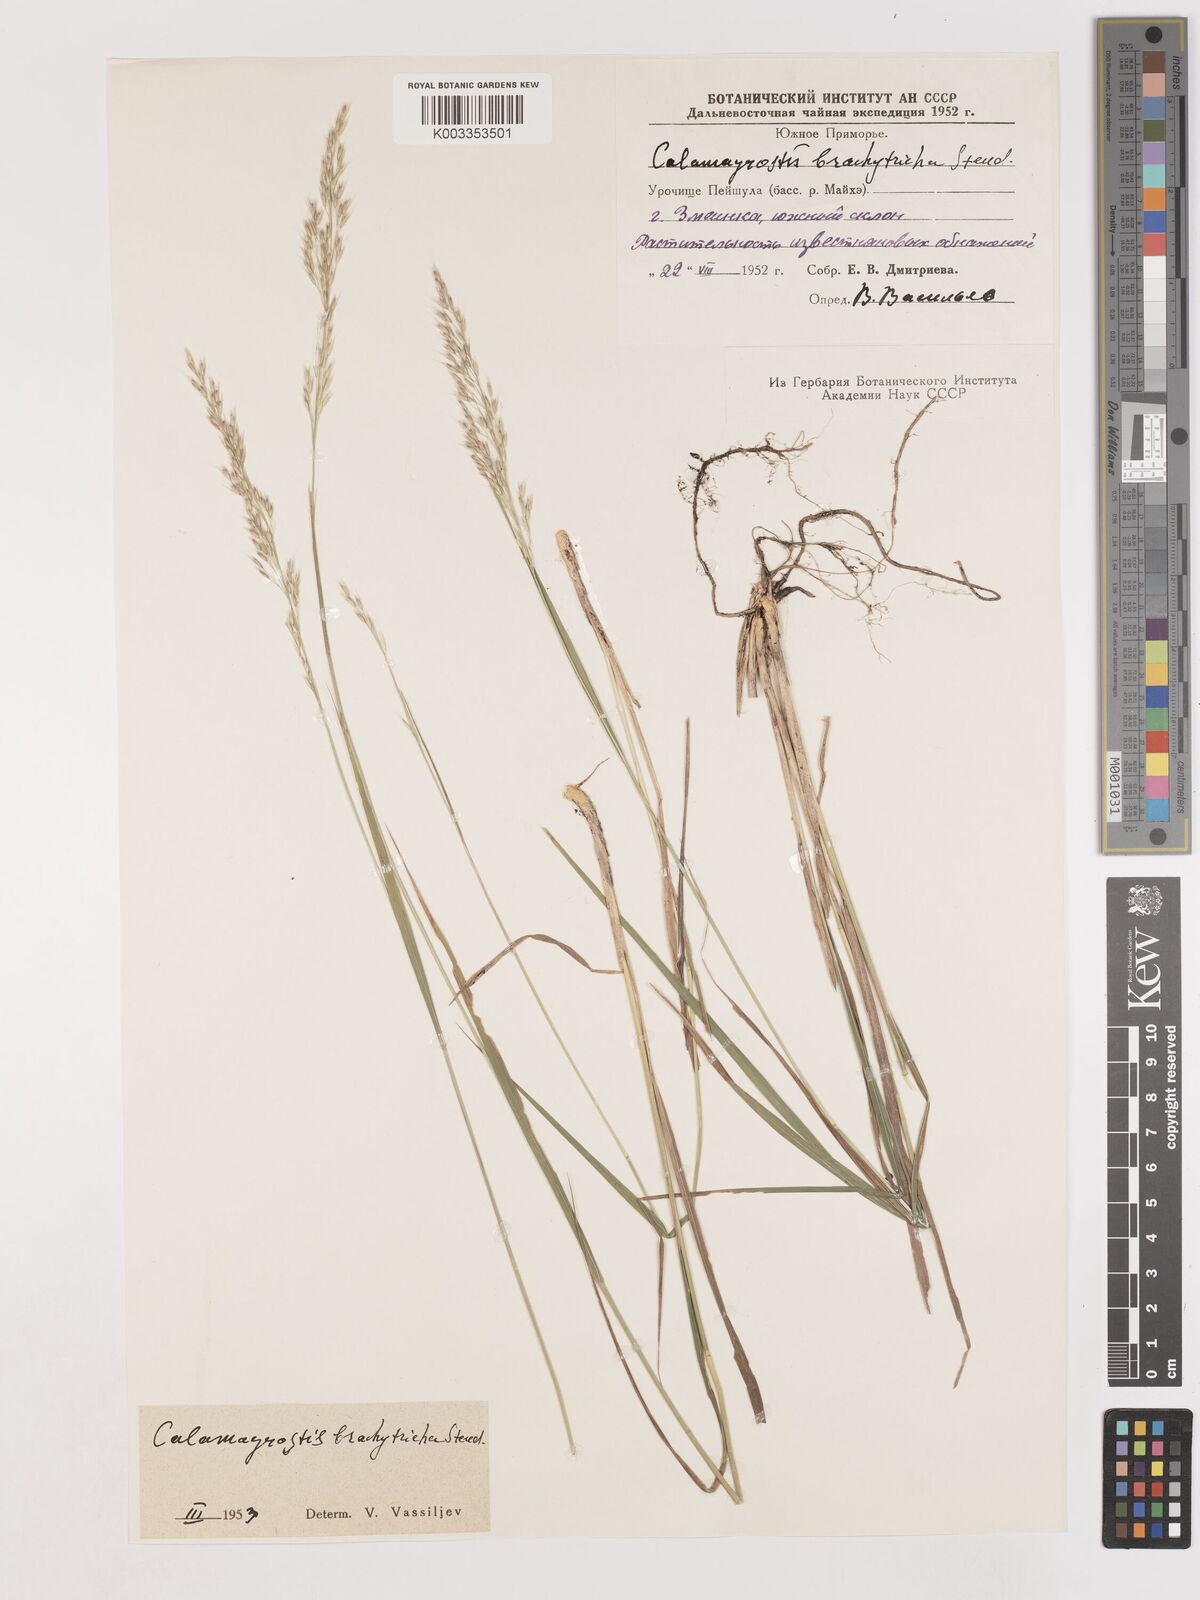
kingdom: Plantae
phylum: Tracheophyta
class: Liliopsida
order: Poales
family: Poaceae
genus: Calamagrostis
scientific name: Calamagrostis
